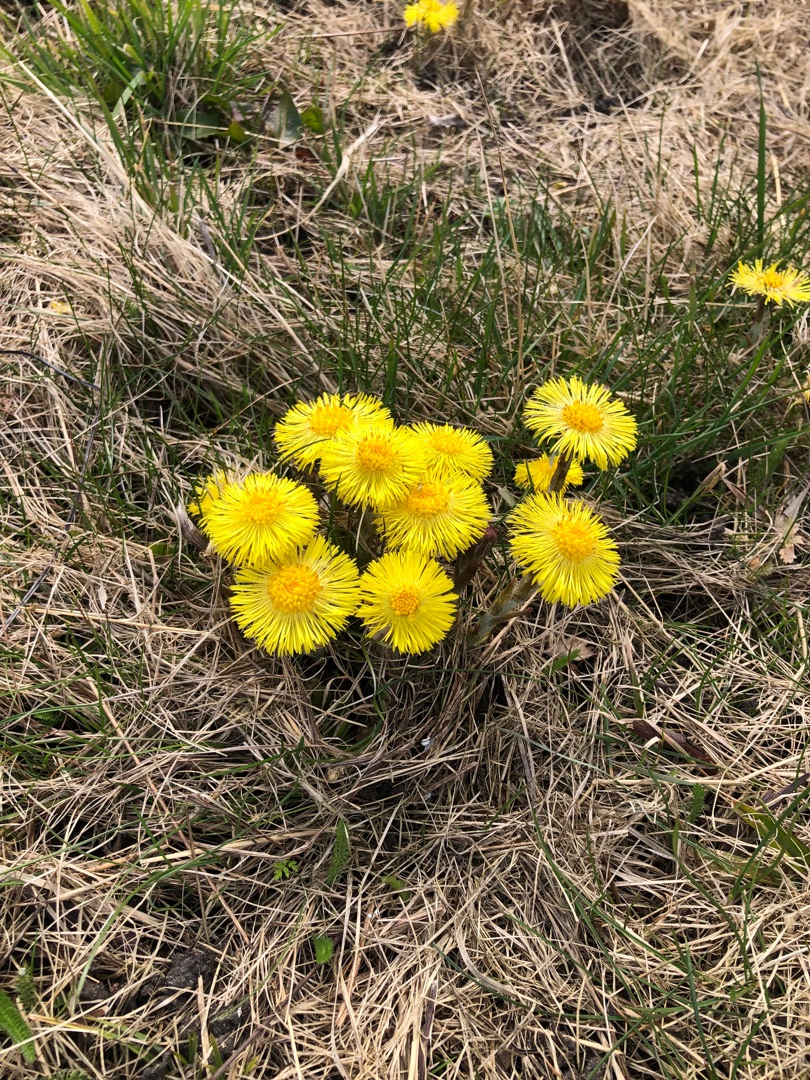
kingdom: Plantae
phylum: Tracheophyta
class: Magnoliopsida
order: Asterales
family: Asteraceae
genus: Tussilago
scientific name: Tussilago farfara
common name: Følfod
